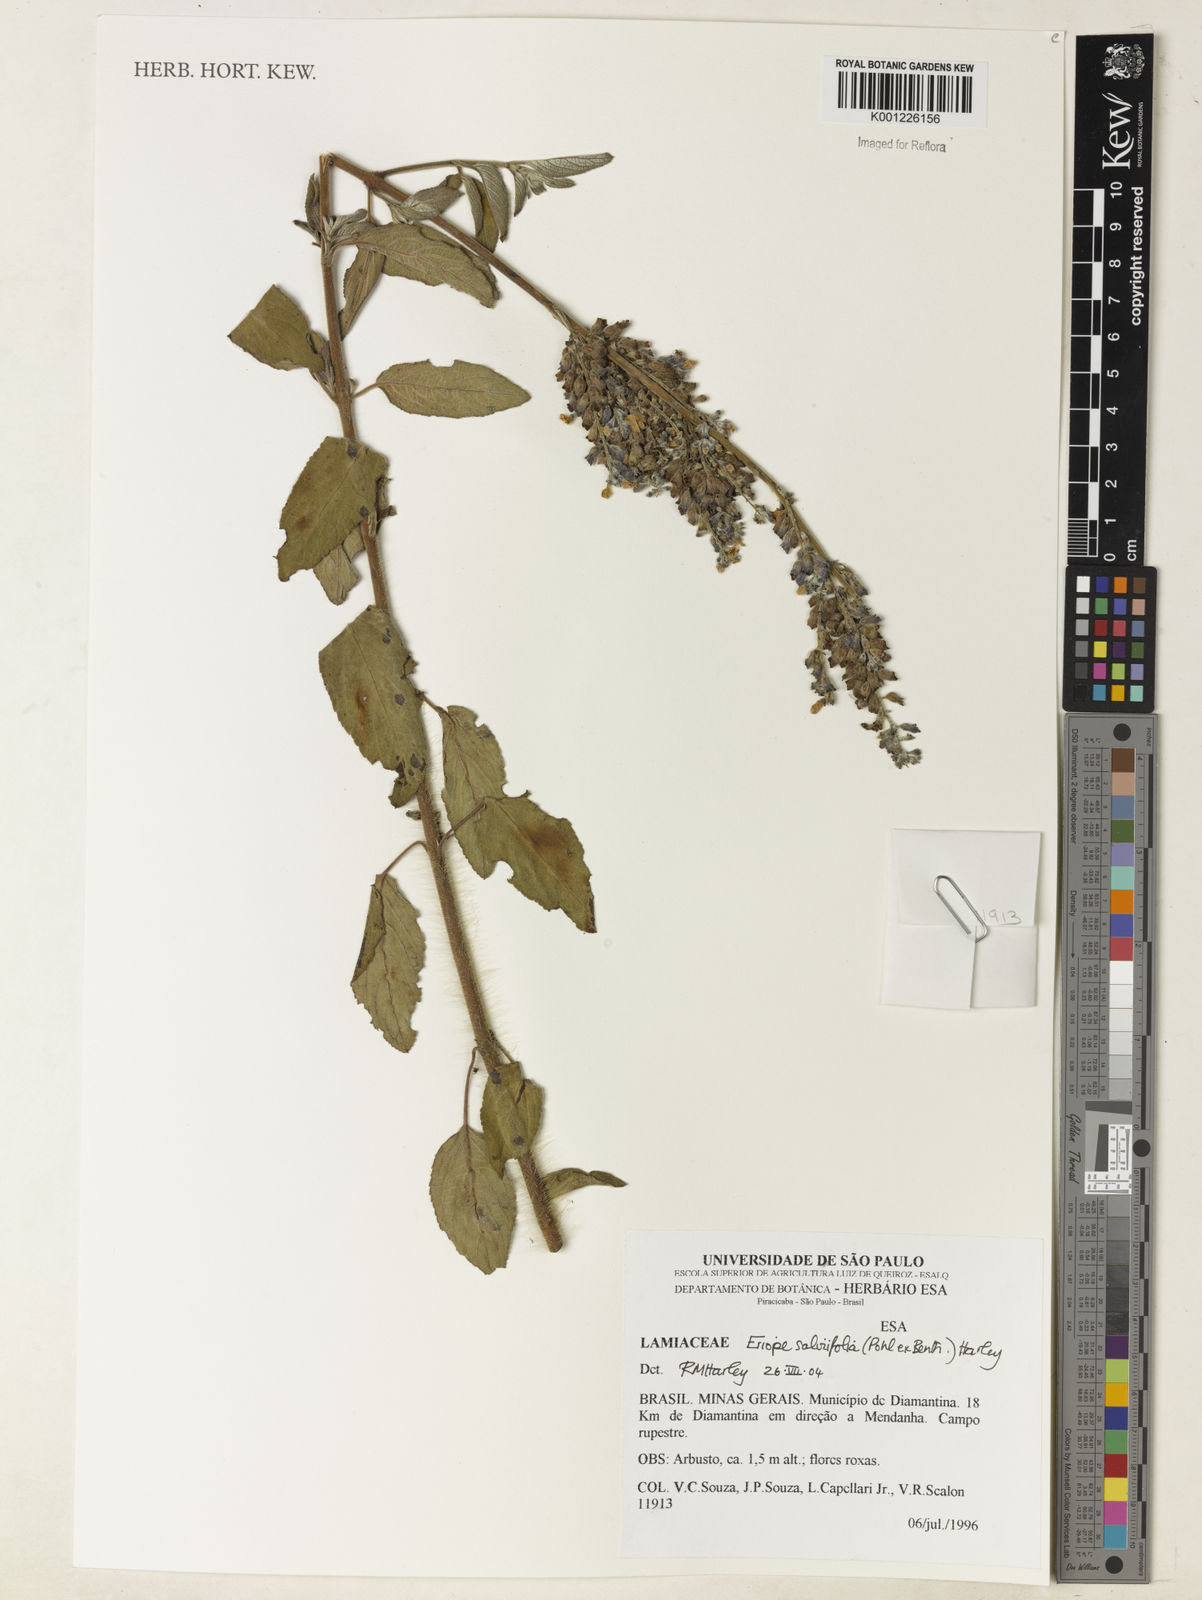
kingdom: Plantae
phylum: Tracheophyta
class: Magnoliopsida
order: Lamiales
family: Lamiaceae
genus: Eriope
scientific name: Eriope salviifolia
